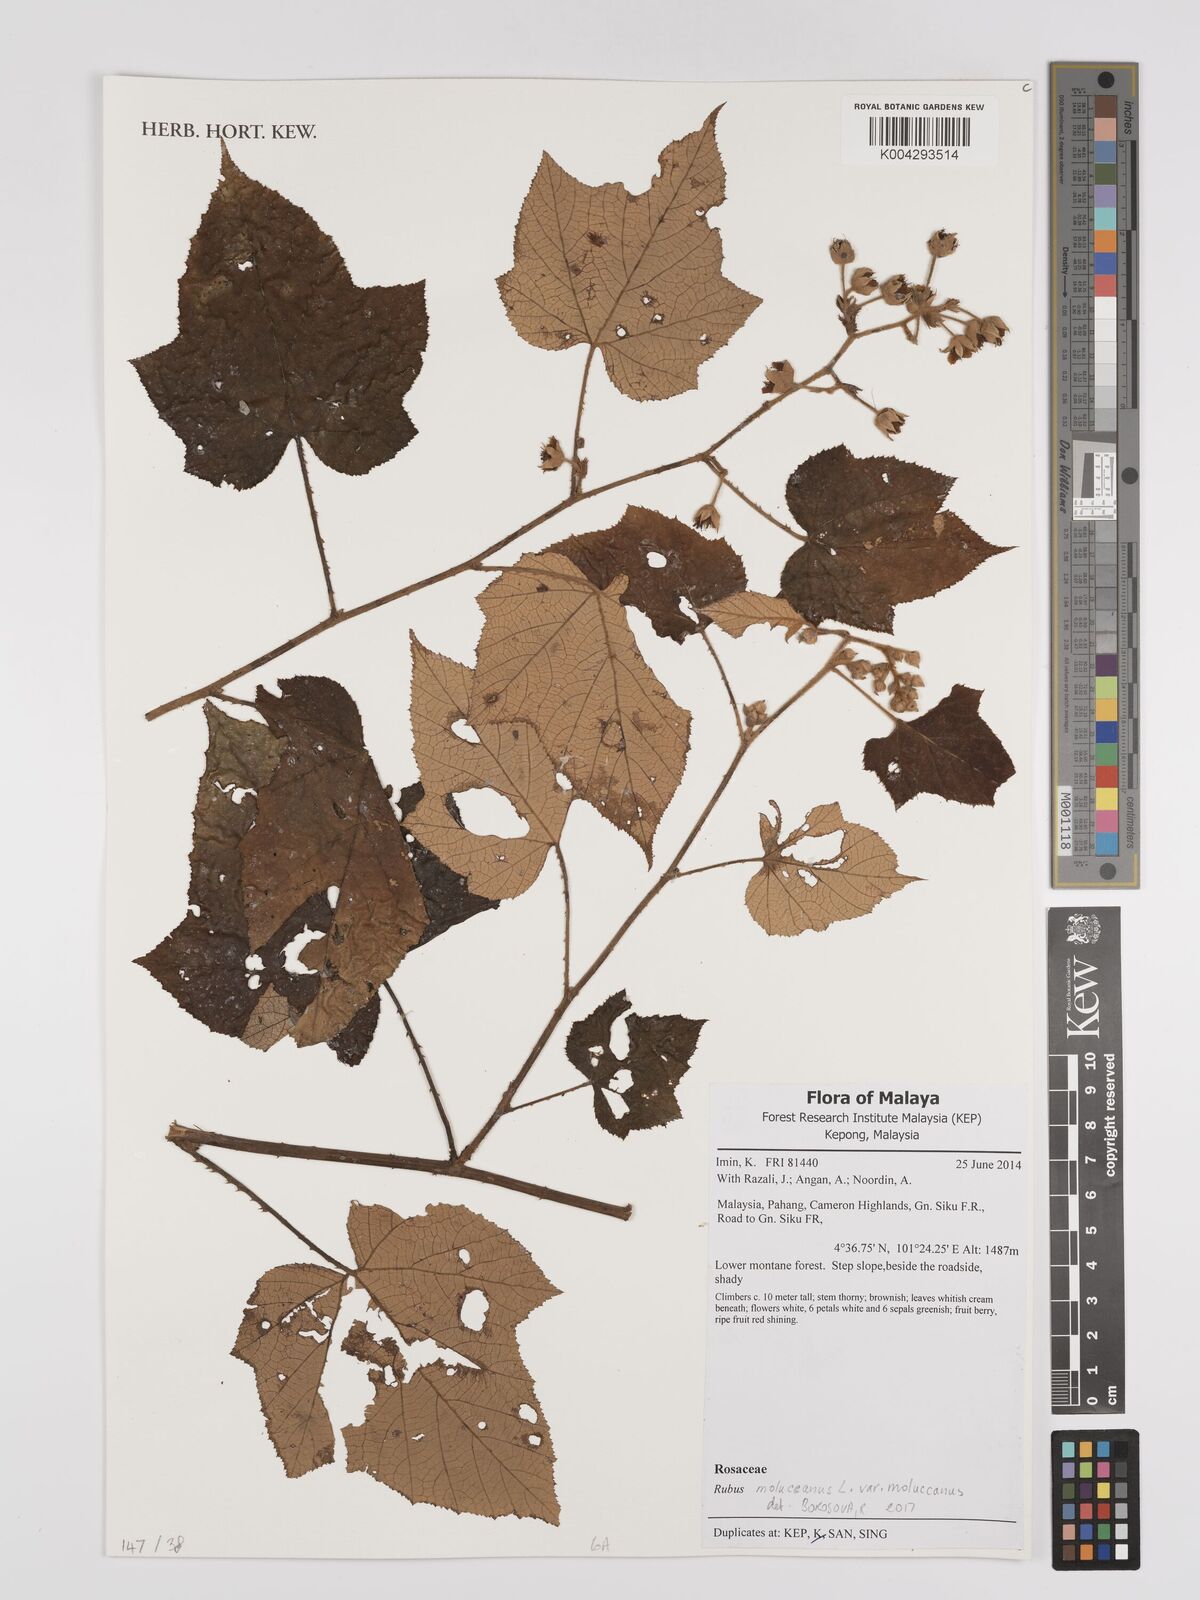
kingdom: Plantae
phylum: Tracheophyta
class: Magnoliopsida
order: Rosales
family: Rosaceae
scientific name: Rosaceae
